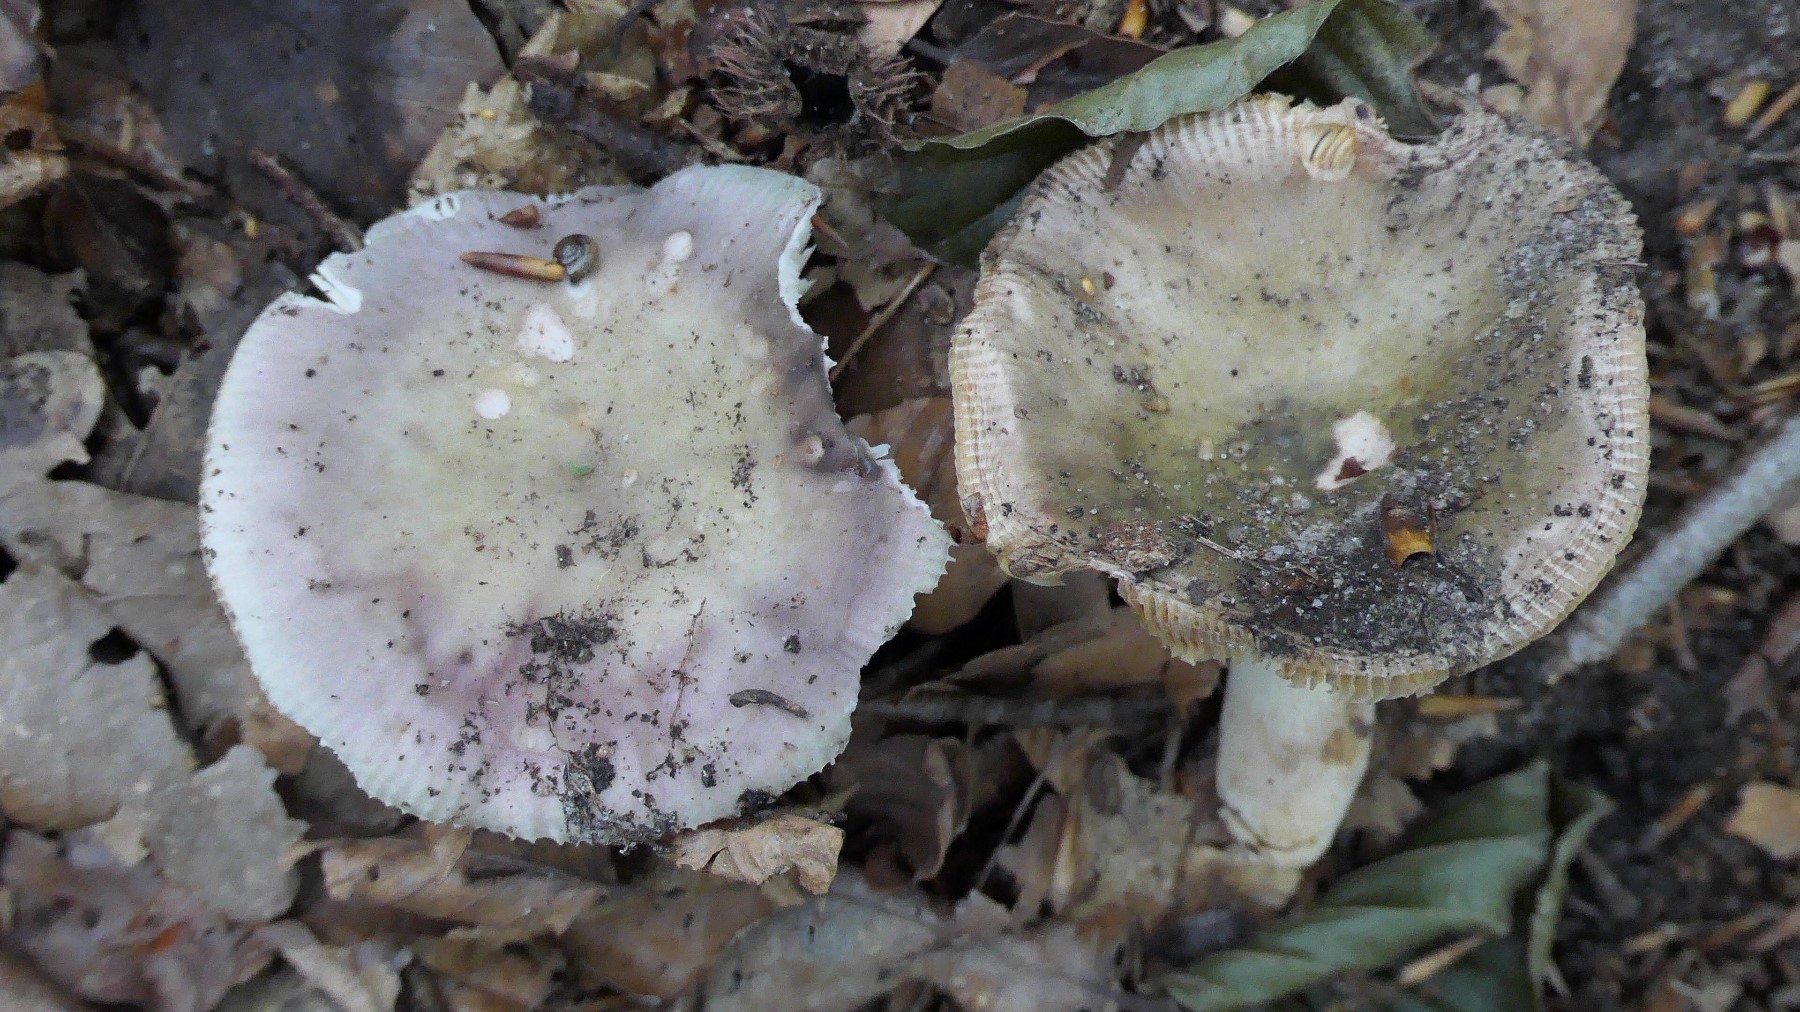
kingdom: Fungi
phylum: Basidiomycota
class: Agaricomycetes
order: Russulales
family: Russulaceae
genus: Russula
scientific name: Russula ionochlora
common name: violetgrøn skørhat
